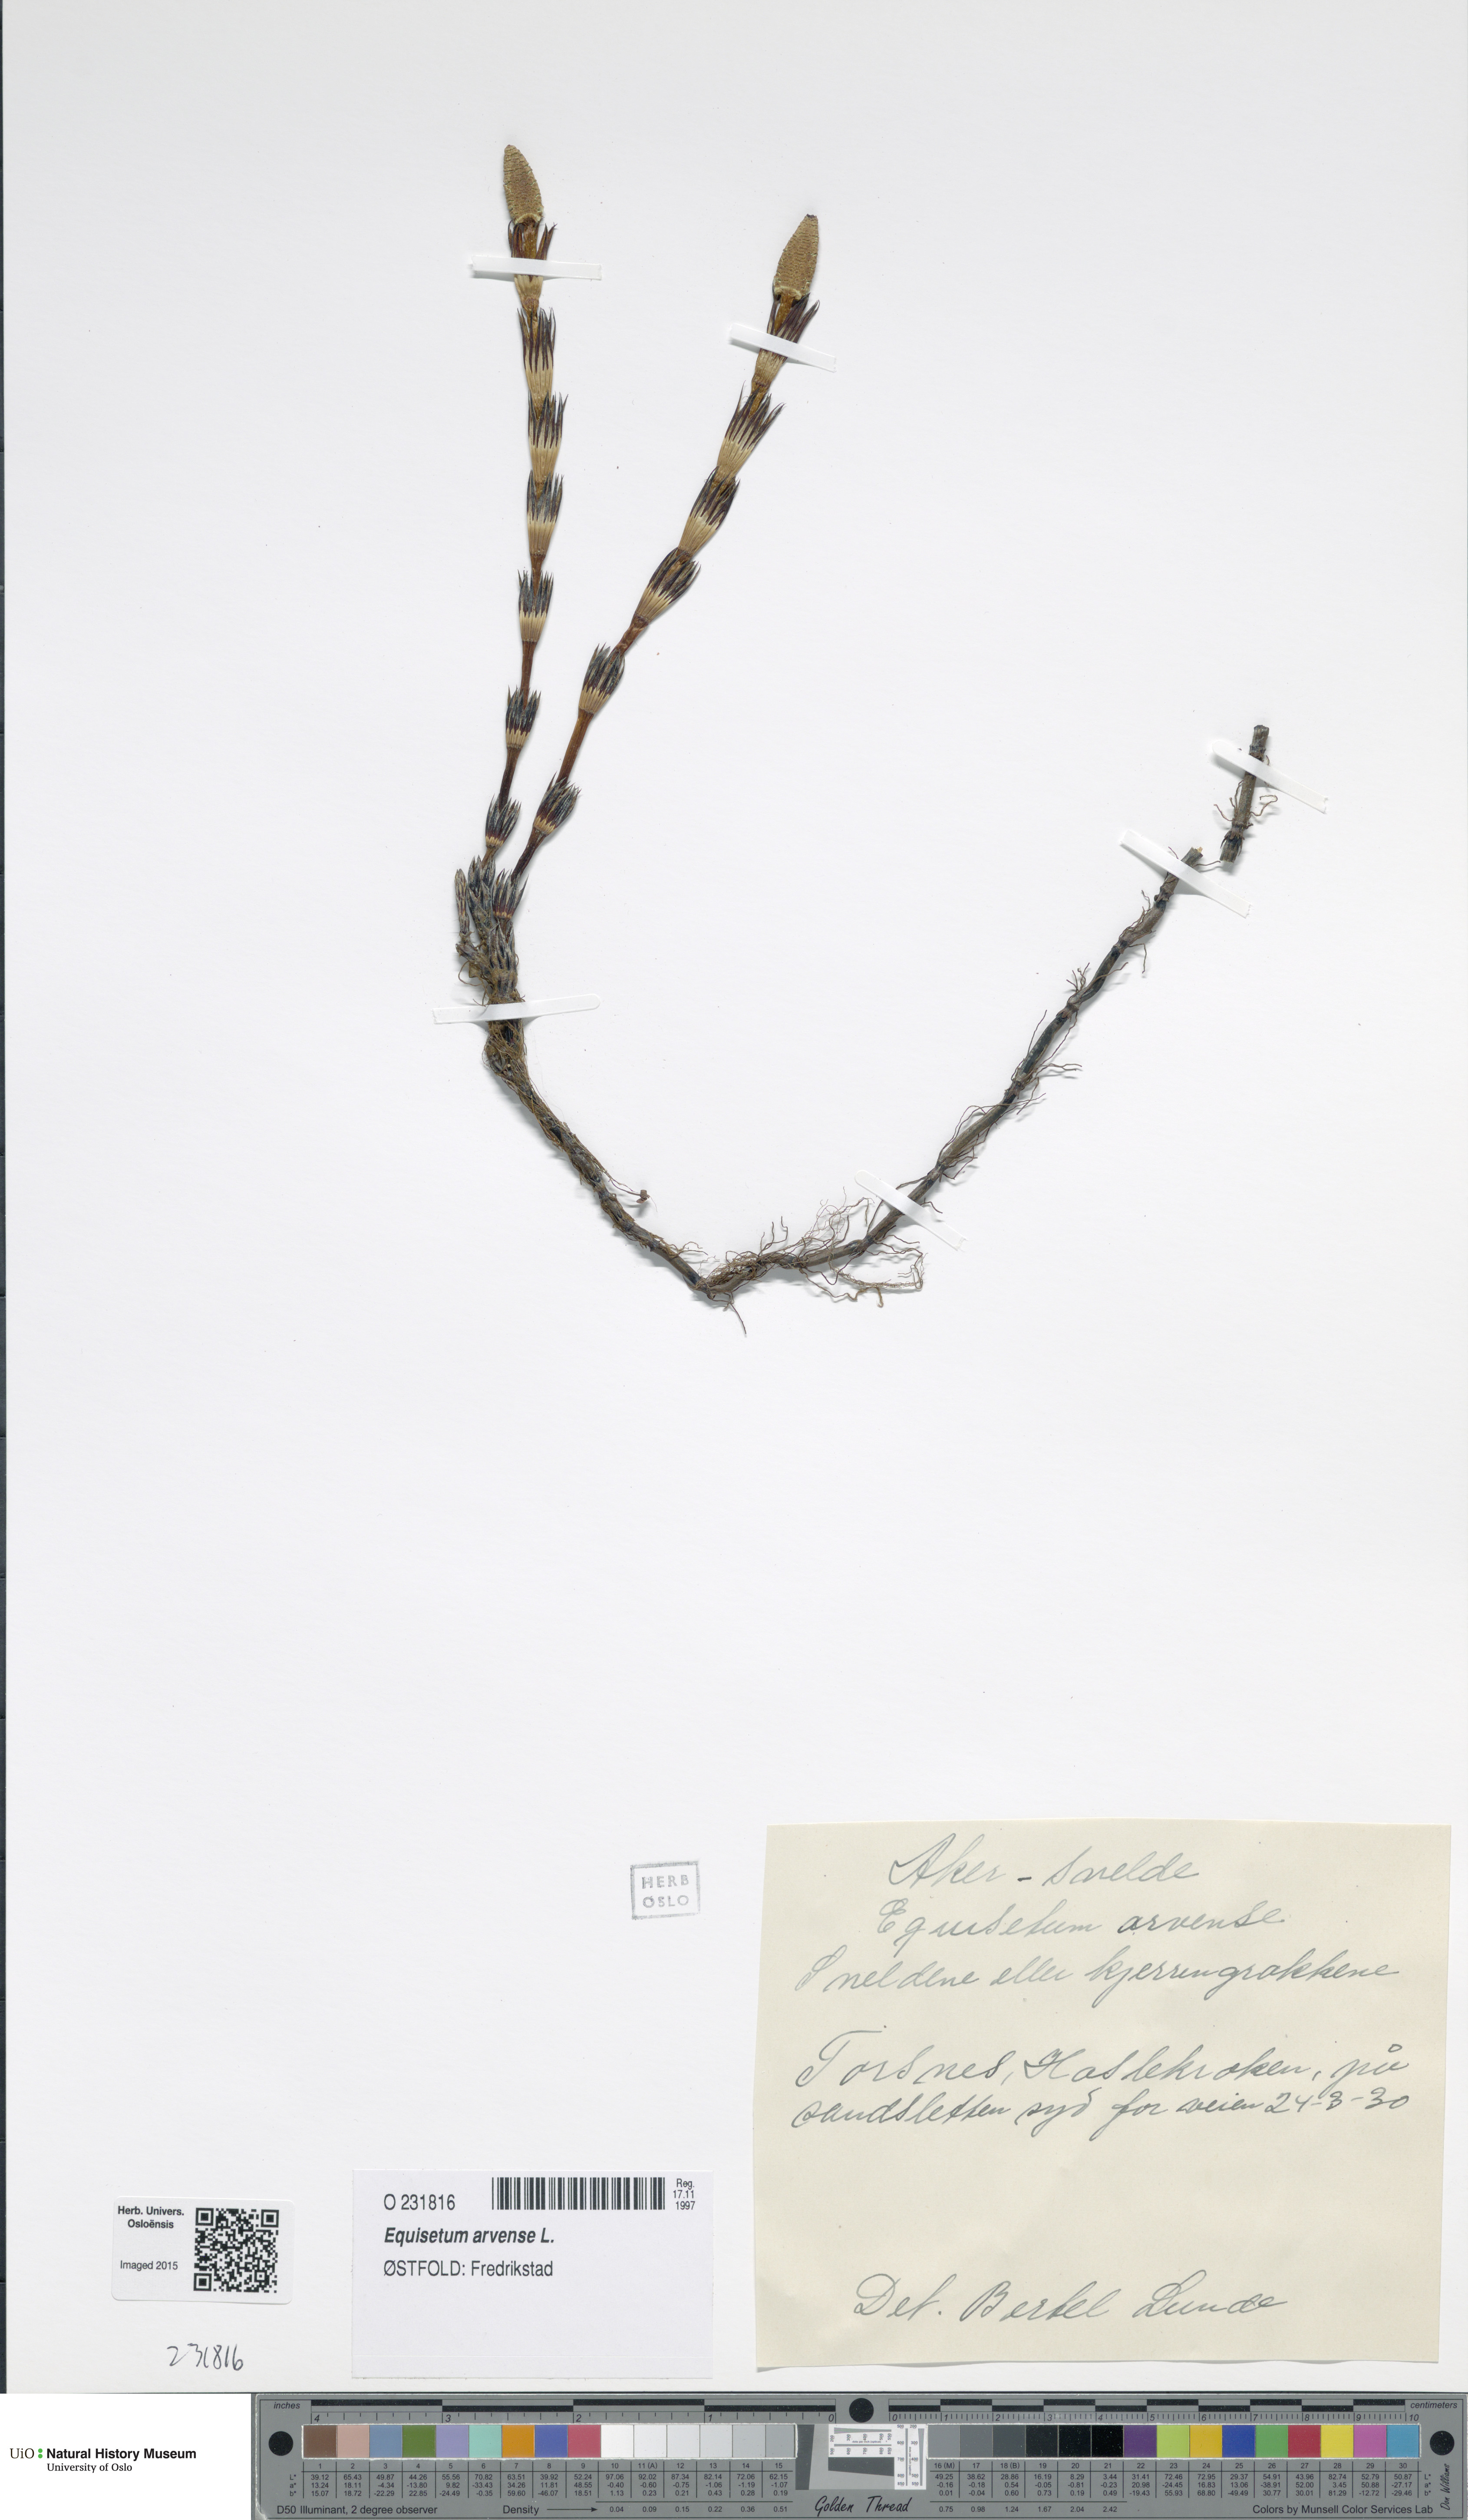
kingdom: Plantae
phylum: Tracheophyta
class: Polypodiopsida
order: Equisetales
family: Equisetaceae
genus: Equisetum
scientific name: Equisetum arvense
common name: Field horsetail
